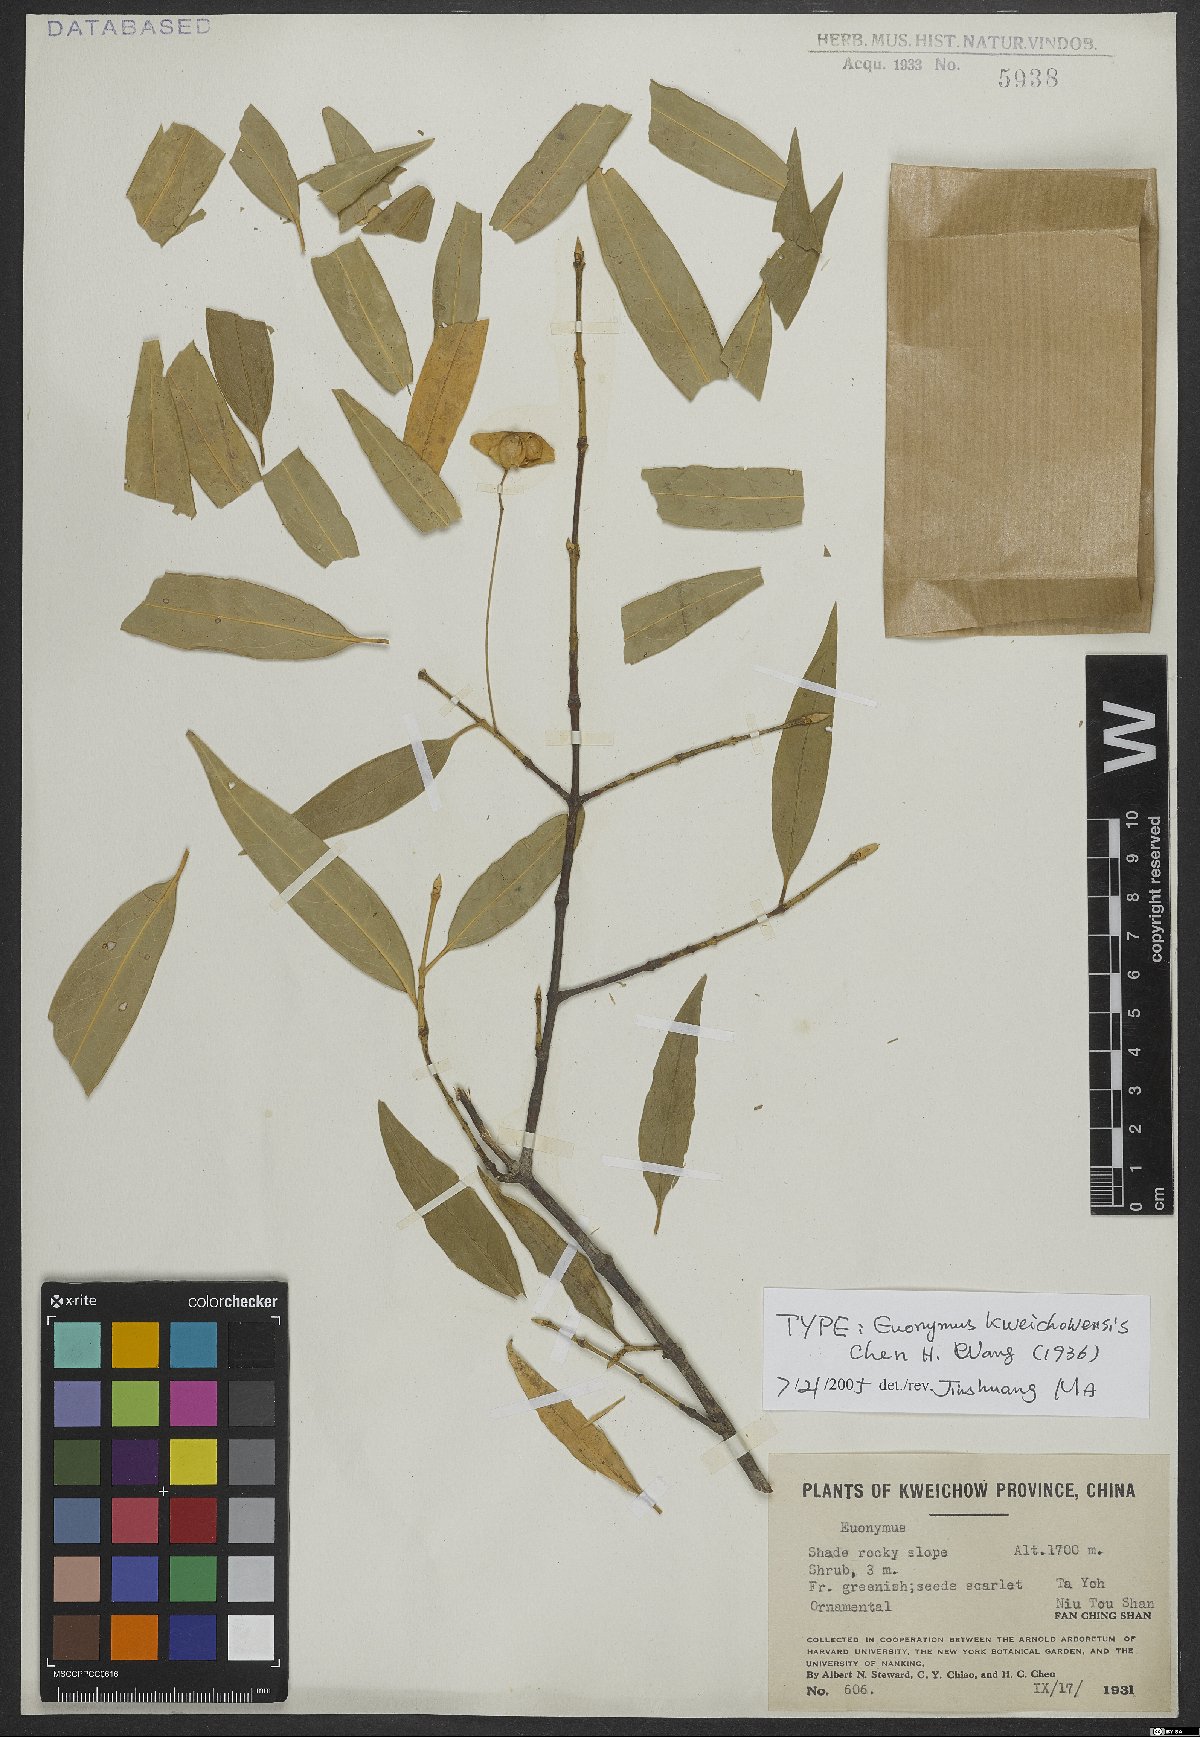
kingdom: Plantae
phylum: Tracheophyta
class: Magnoliopsida
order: Celastrales
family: Celastraceae
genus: Euonymus
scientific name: Euonymus kweichowensis
